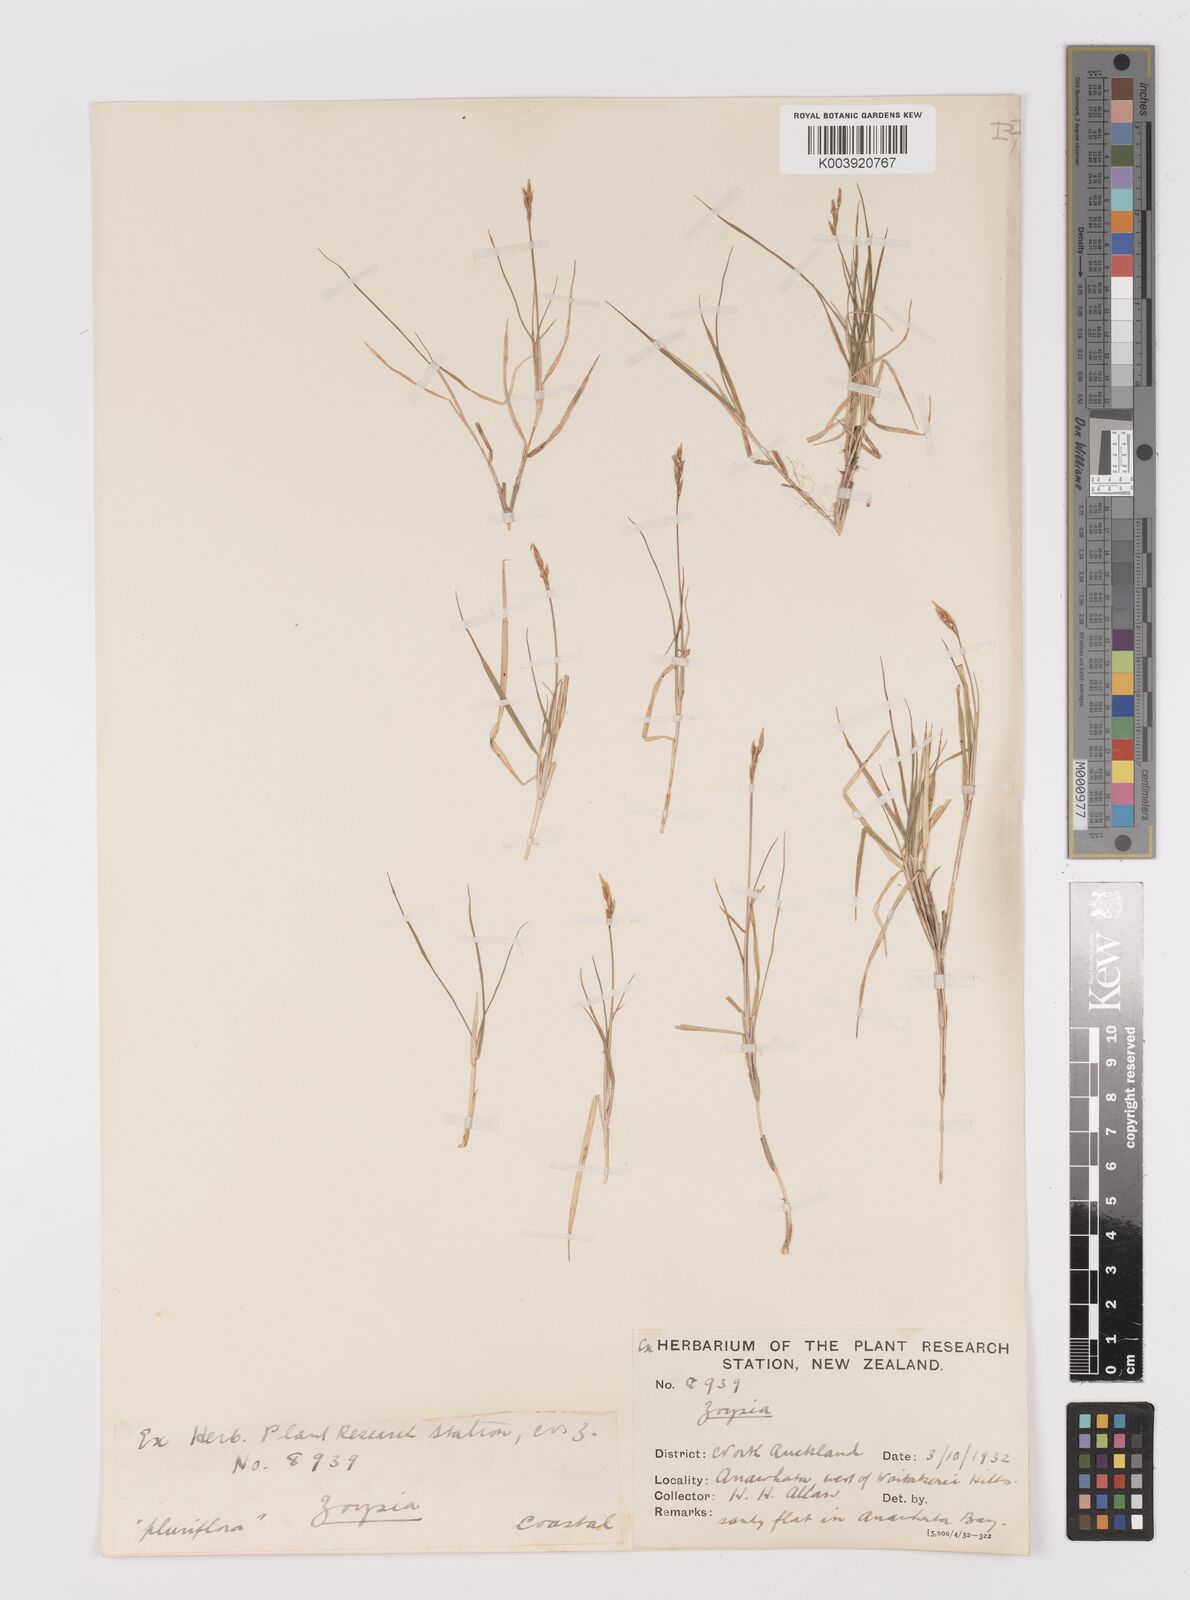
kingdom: Plantae
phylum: Tracheophyta
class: Liliopsida
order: Poales
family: Poaceae
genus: Zoysia
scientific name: Zoysia pauciflora
